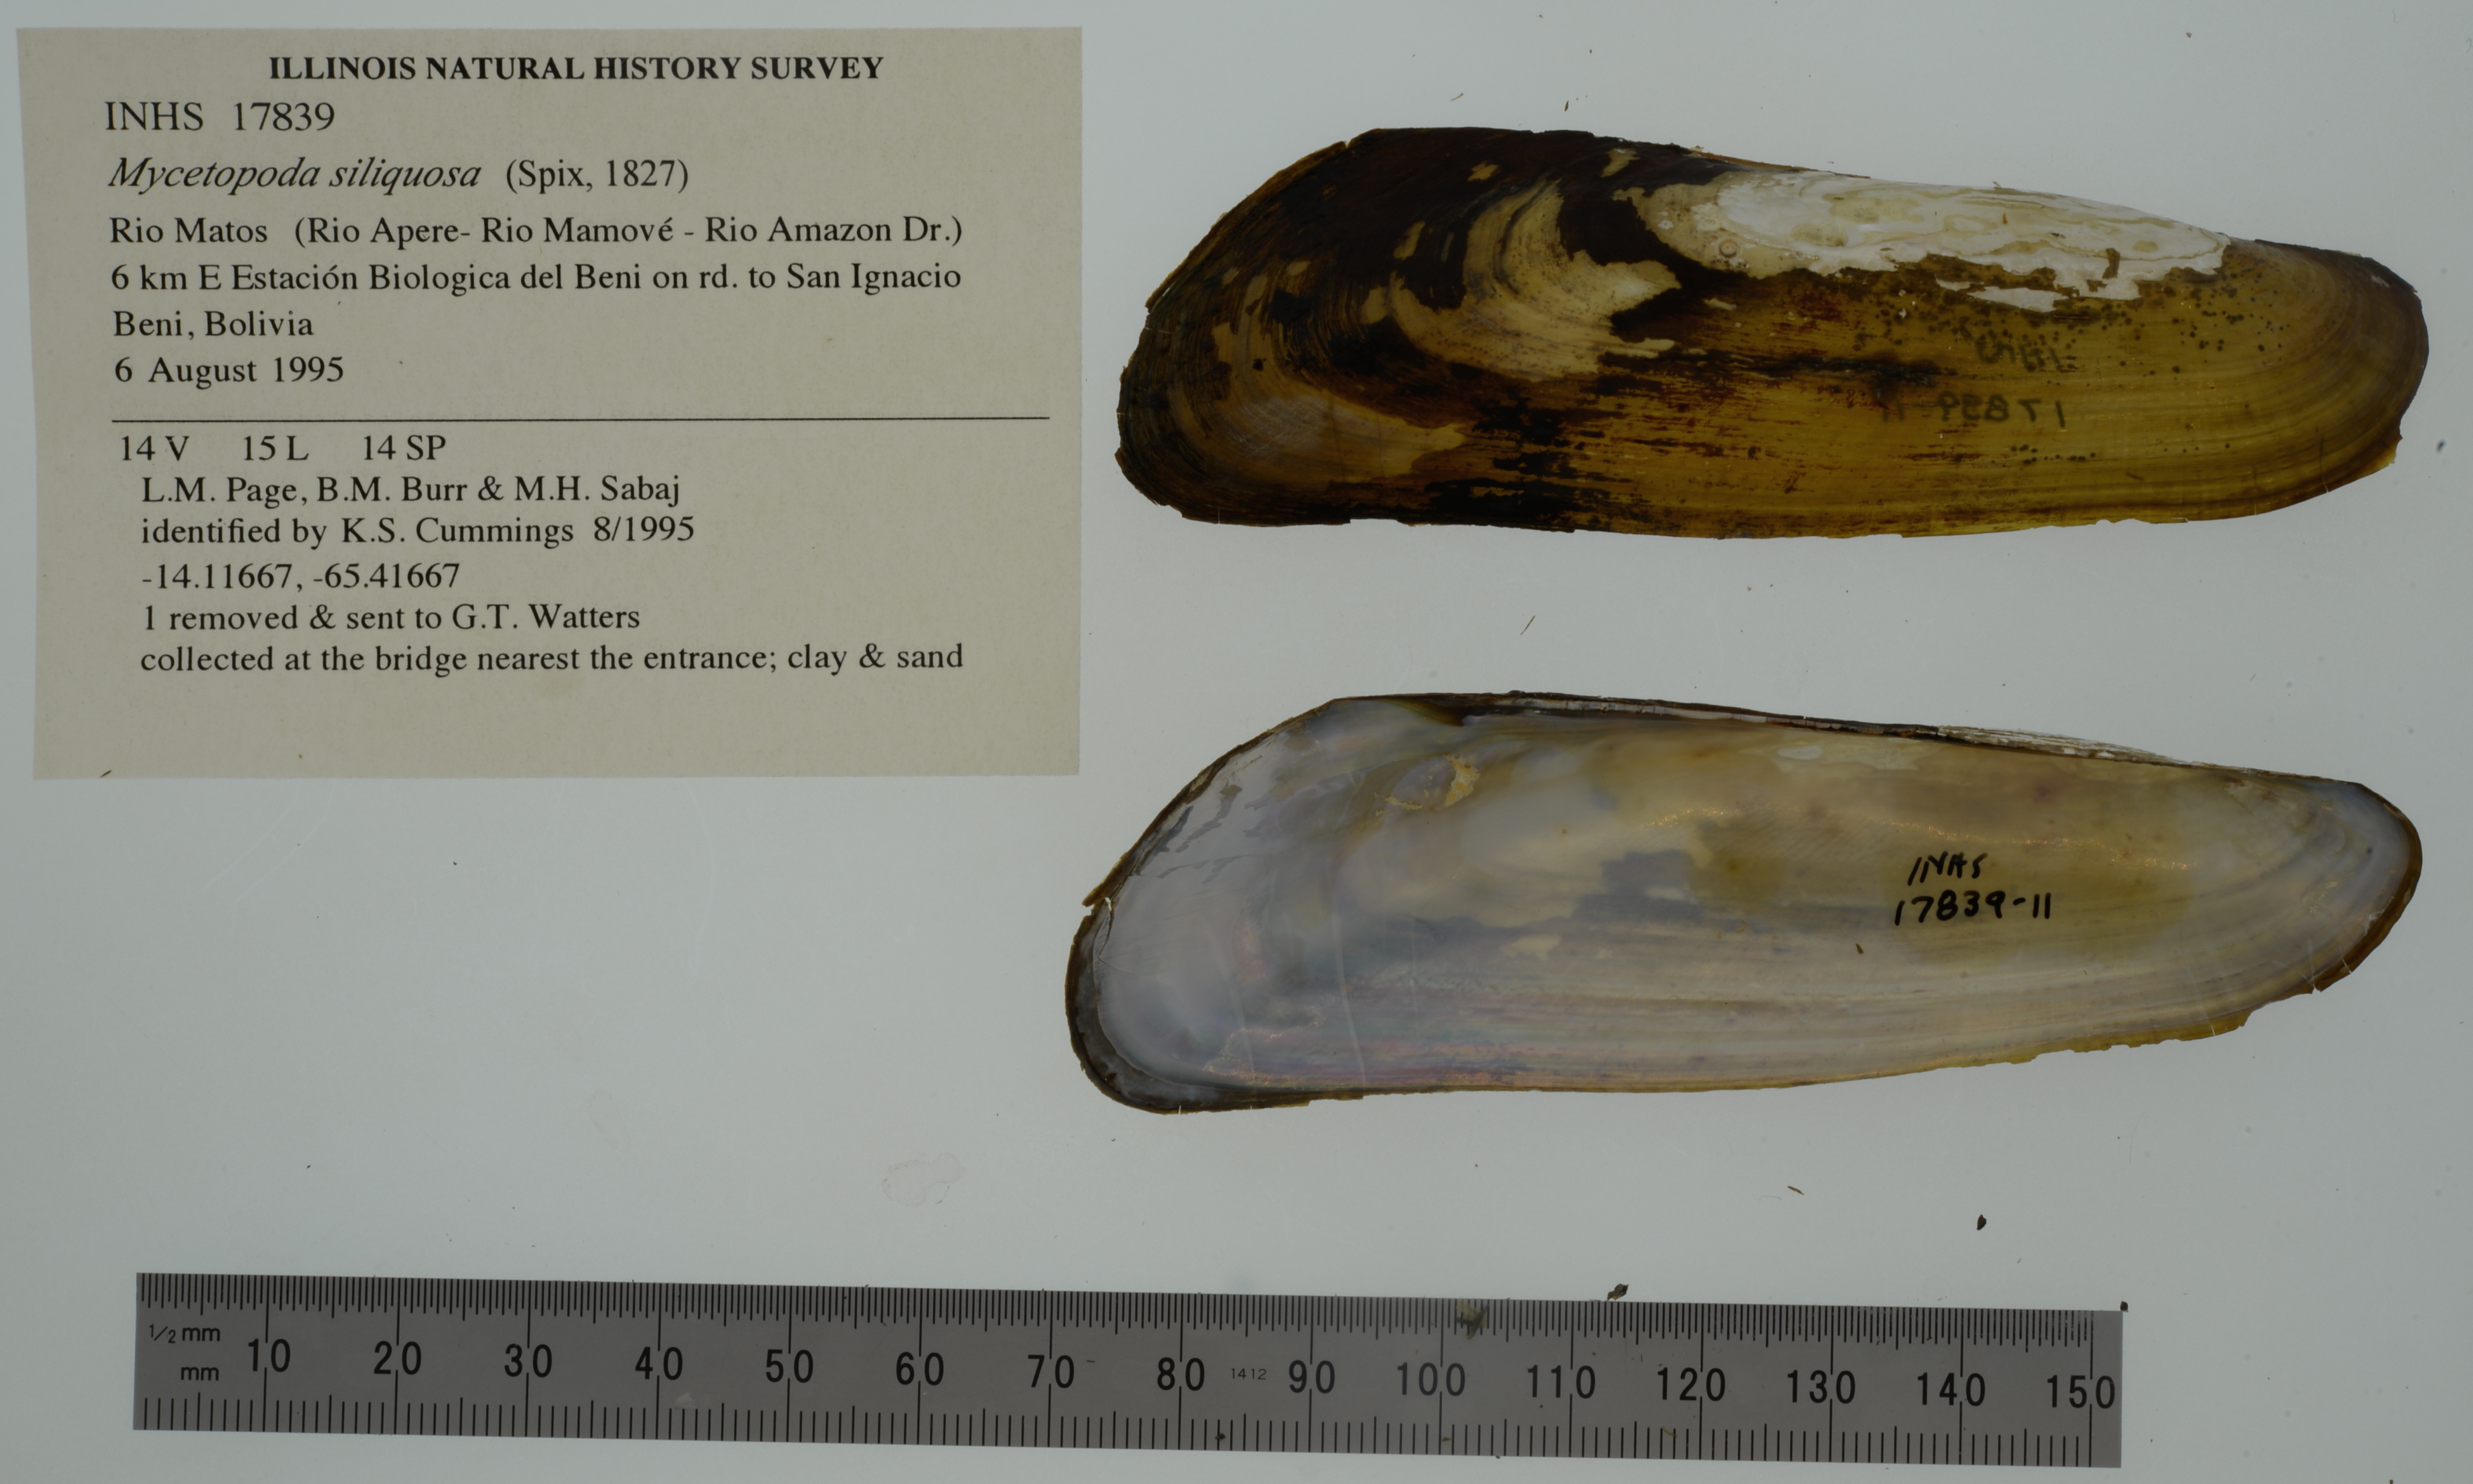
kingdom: Animalia
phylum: Mollusca
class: Bivalvia
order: Unionida
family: Mycetopodidae
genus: Mycetopoda
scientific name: Mycetopoda siliquosa
